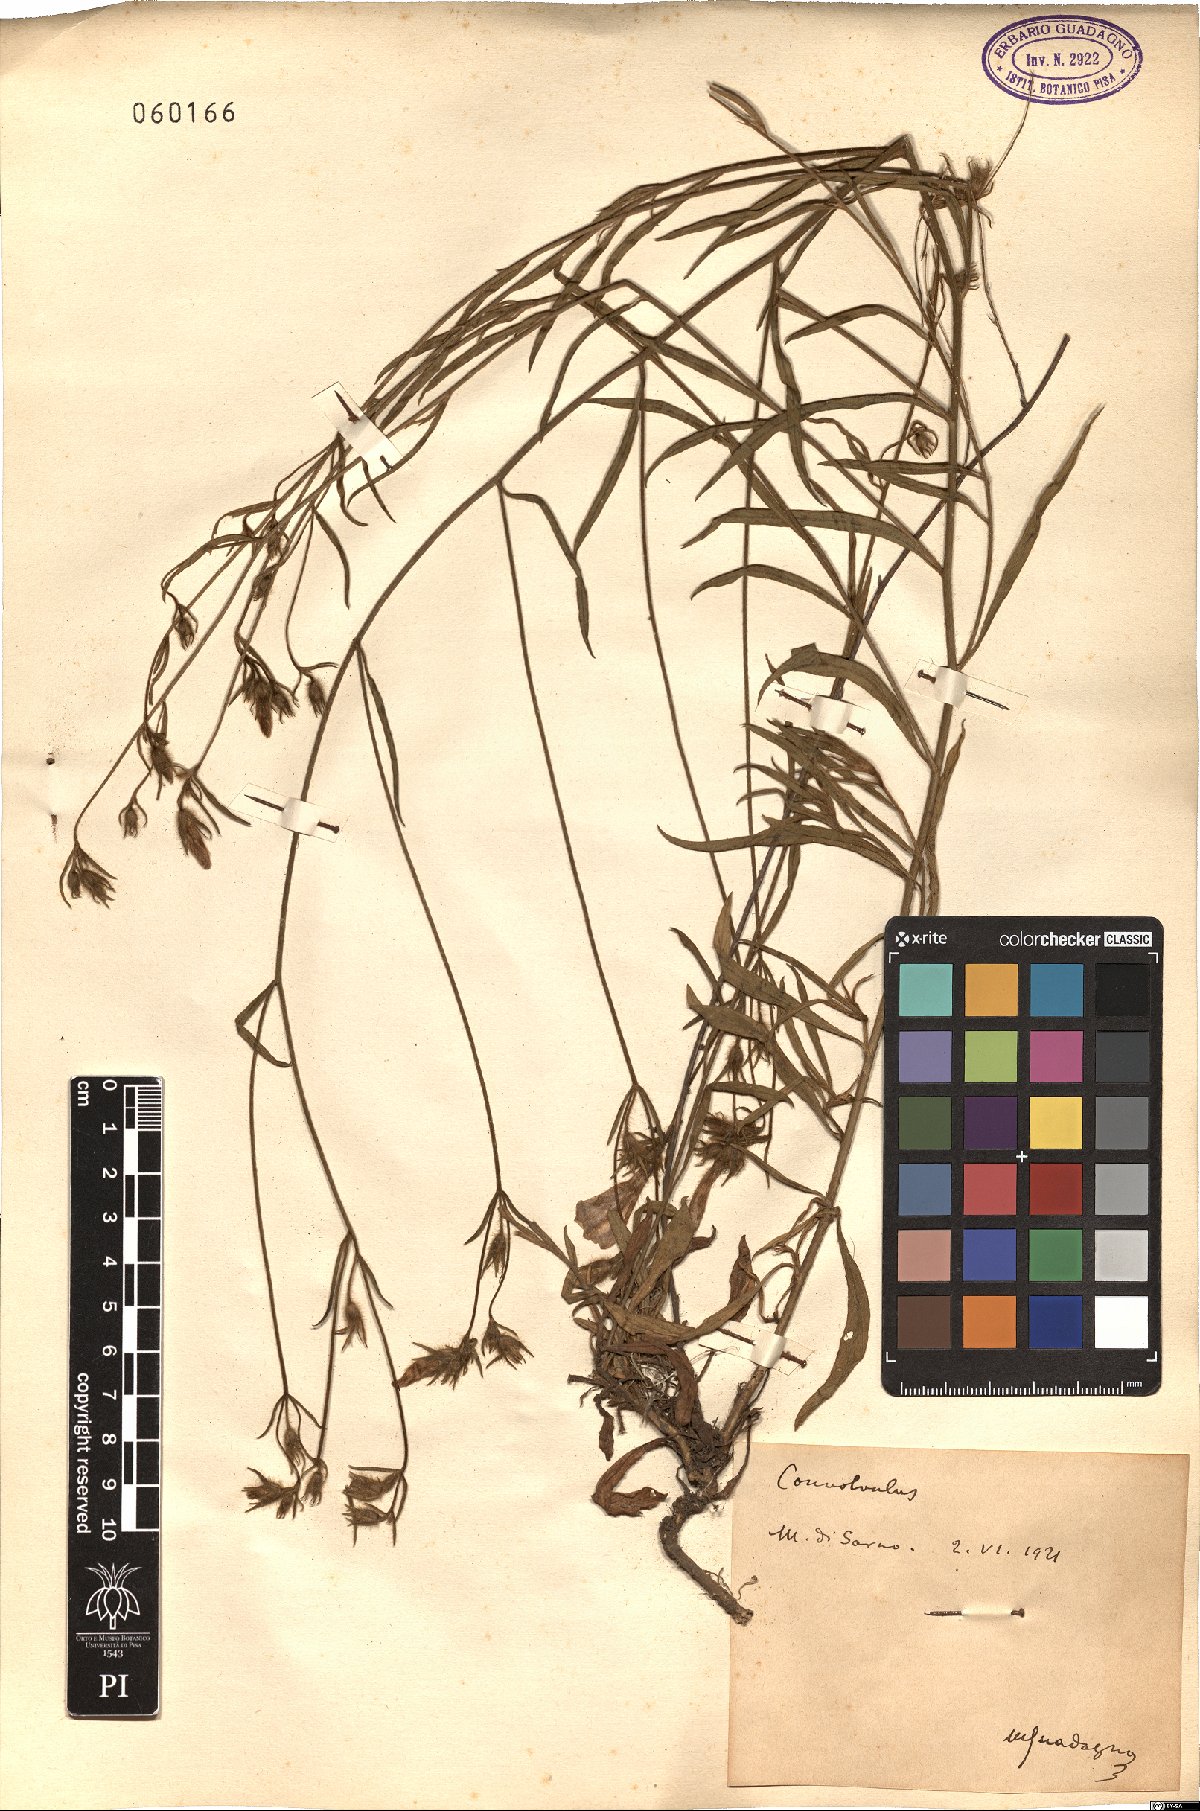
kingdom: Plantae
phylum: Tracheophyta
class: Magnoliopsida
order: Solanales
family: Convolvulaceae
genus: Convolvulus
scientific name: Convolvulus
